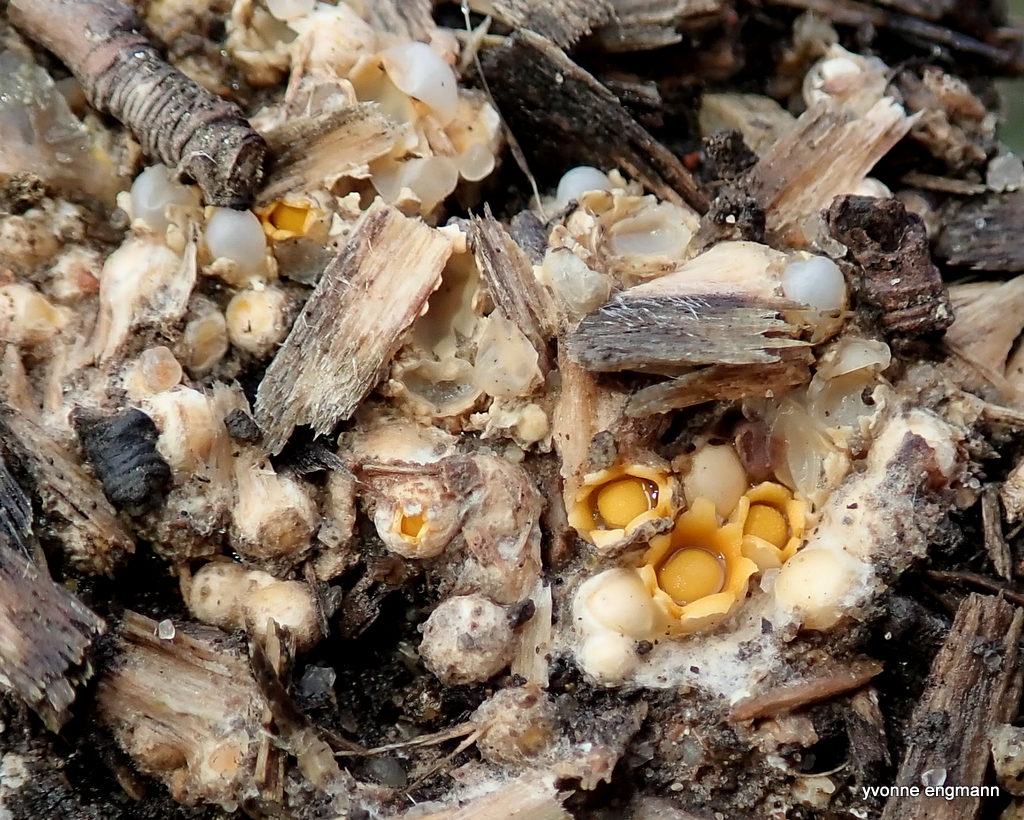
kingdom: Fungi
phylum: Basidiomycota
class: Agaricomycetes
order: Geastrales
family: Geastraceae
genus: Sphaerobolus
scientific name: Sphaerobolus stellatus
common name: bombekaster
